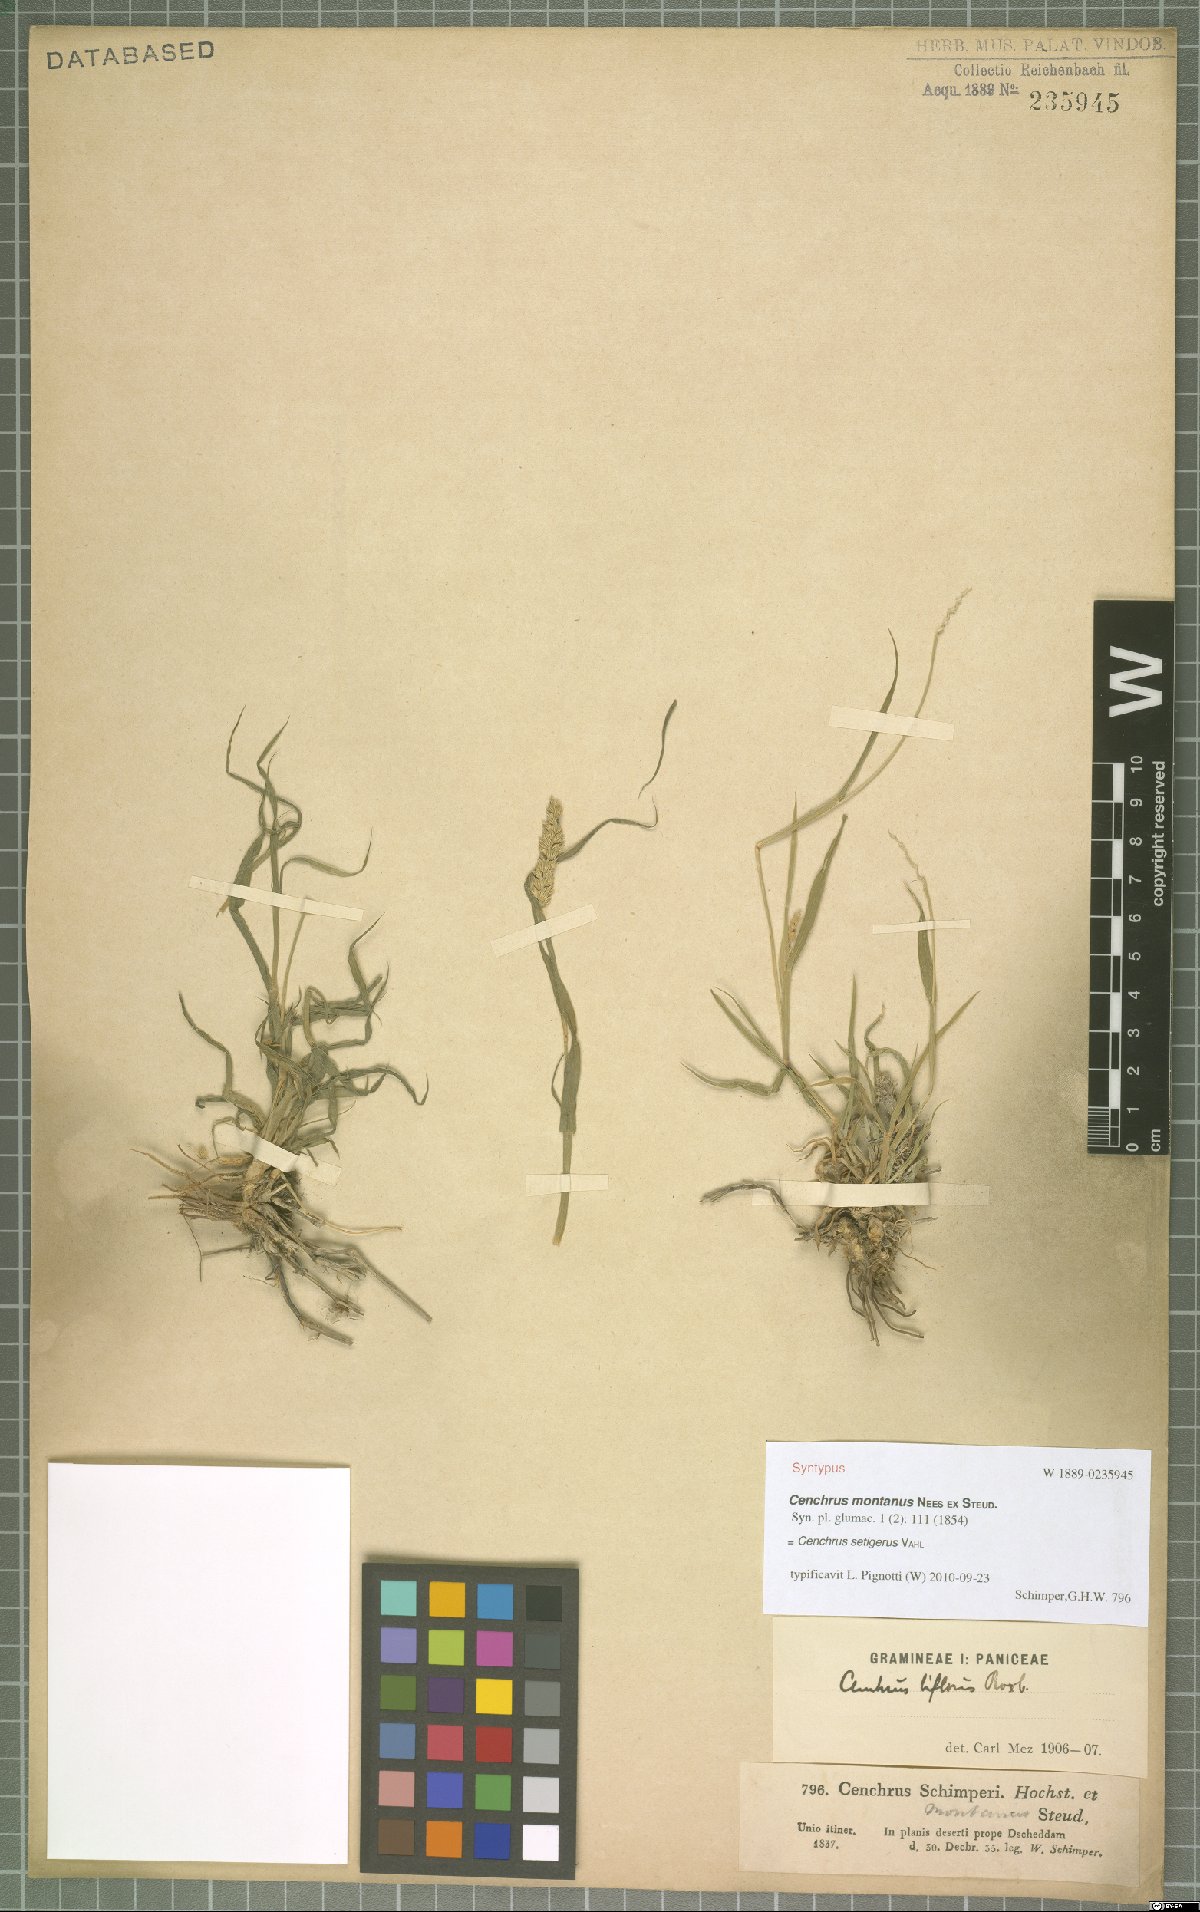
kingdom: Plantae
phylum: Tracheophyta
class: Liliopsida
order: Poales
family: Poaceae
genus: Cenchrus
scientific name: Cenchrus setigerus
